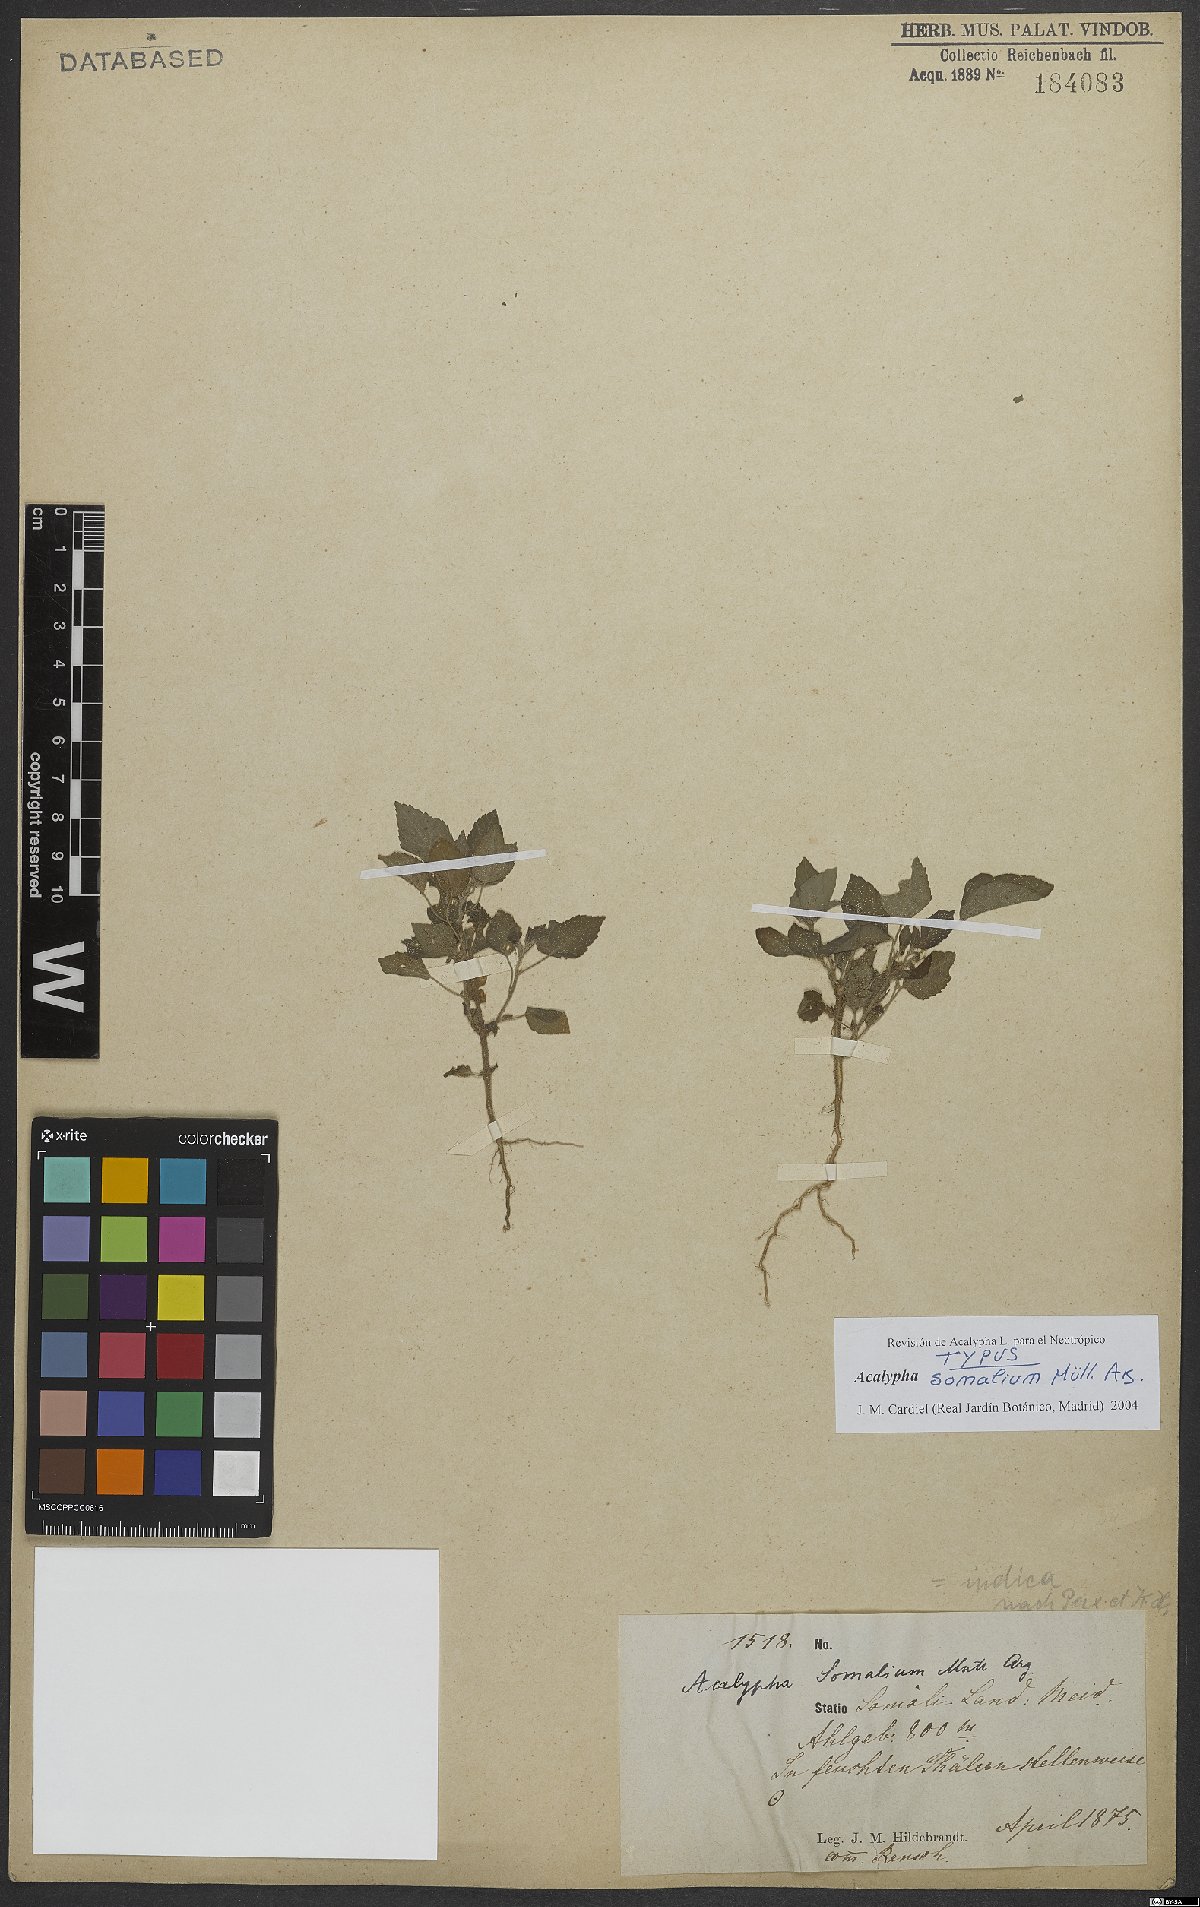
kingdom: Plantae
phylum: Tracheophyta
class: Magnoliopsida
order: Malpighiales
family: Euphorbiaceae
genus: Acalypha
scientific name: Acalypha indica
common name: Indian acalypha
